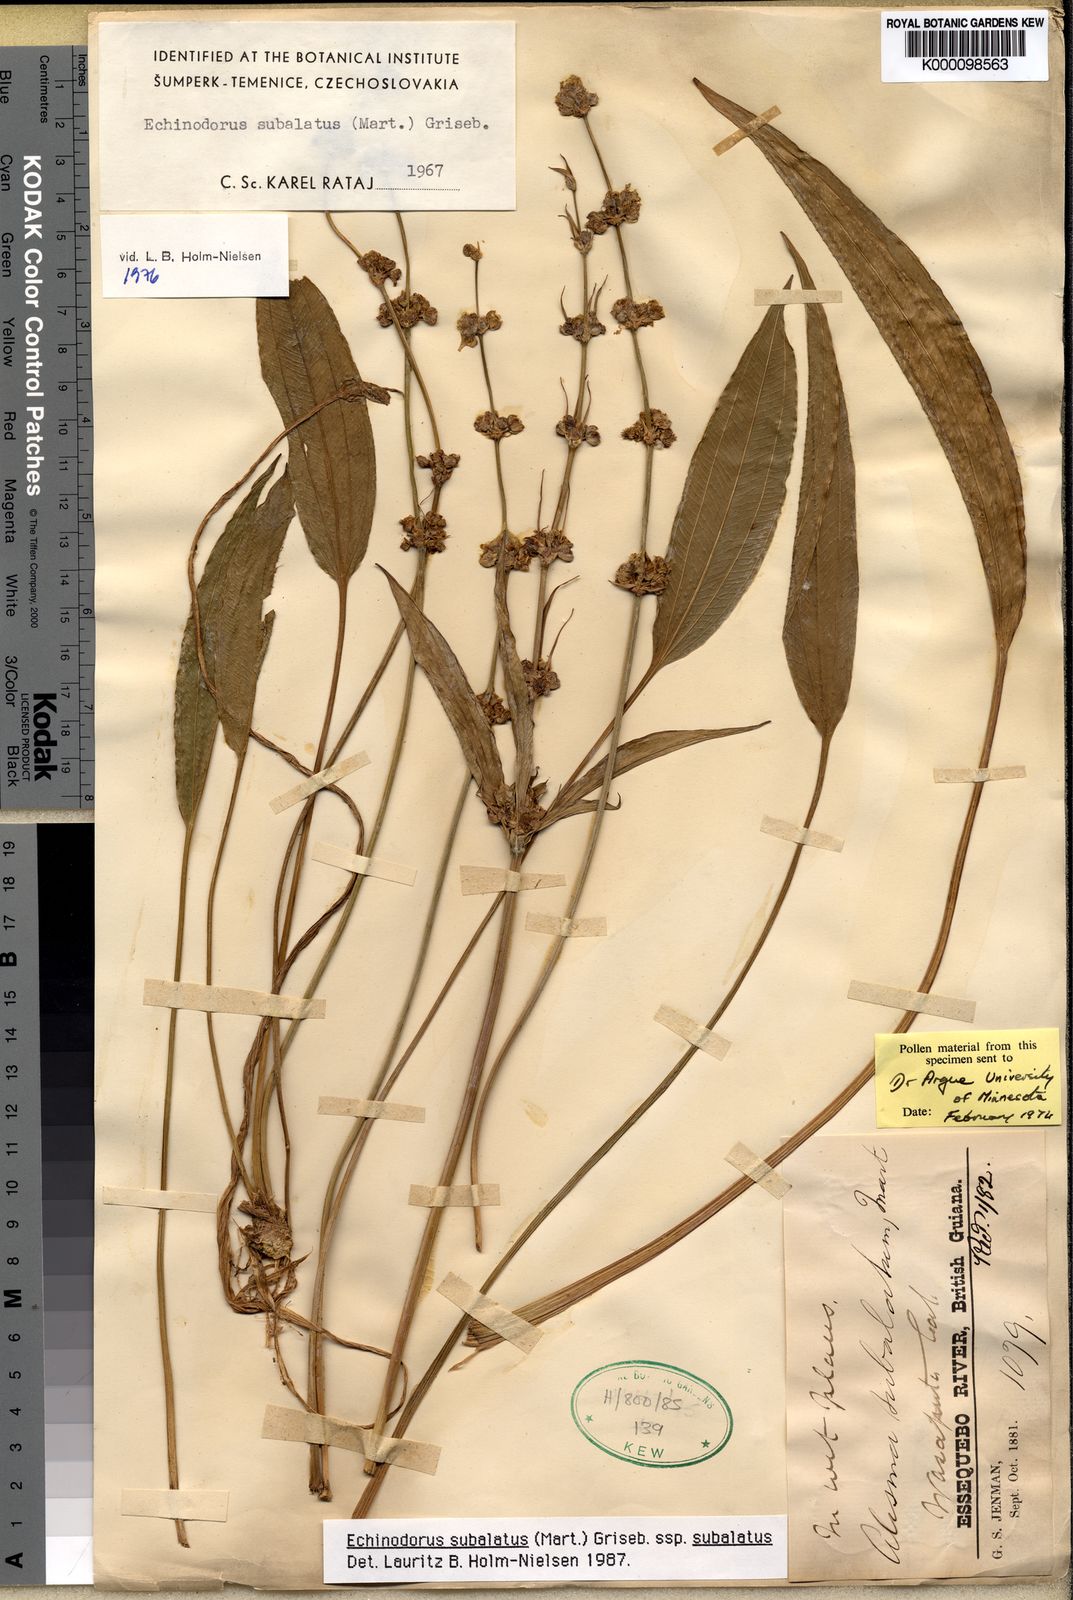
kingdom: Plantae
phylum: Tracheophyta
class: Liliopsida
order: Alismatales
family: Alismataceae
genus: Aquarius
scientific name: Aquarius subulatus
